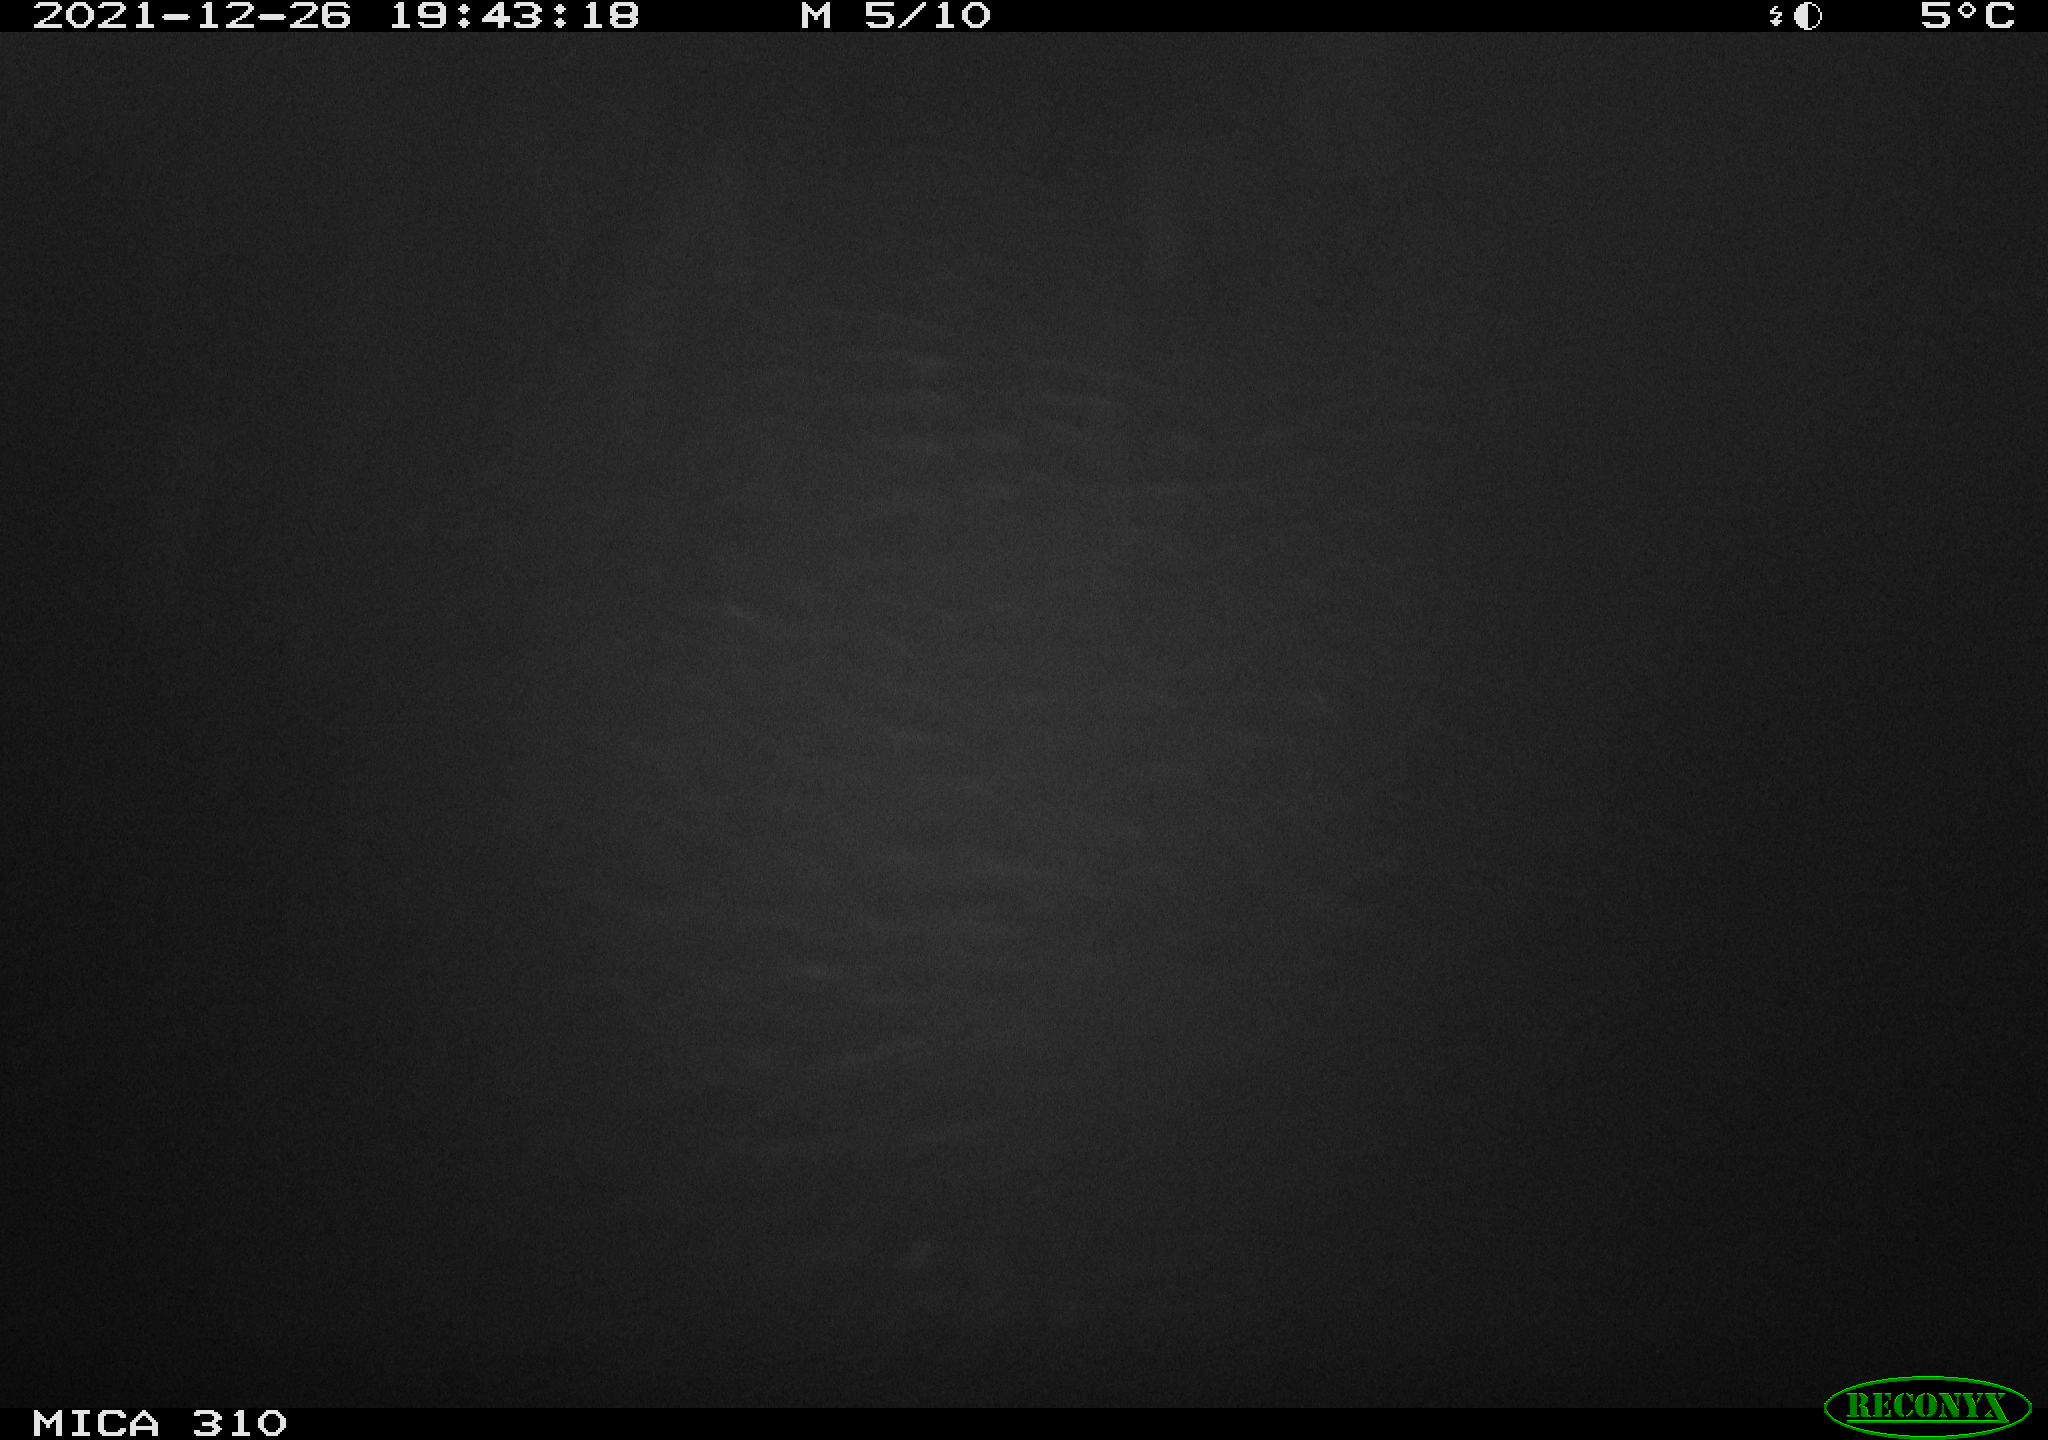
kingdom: Animalia
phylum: Chordata
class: Mammalia
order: Rodentia
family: Muridae
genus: Rattus
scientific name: Rattus norvegicus
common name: Brown rat
